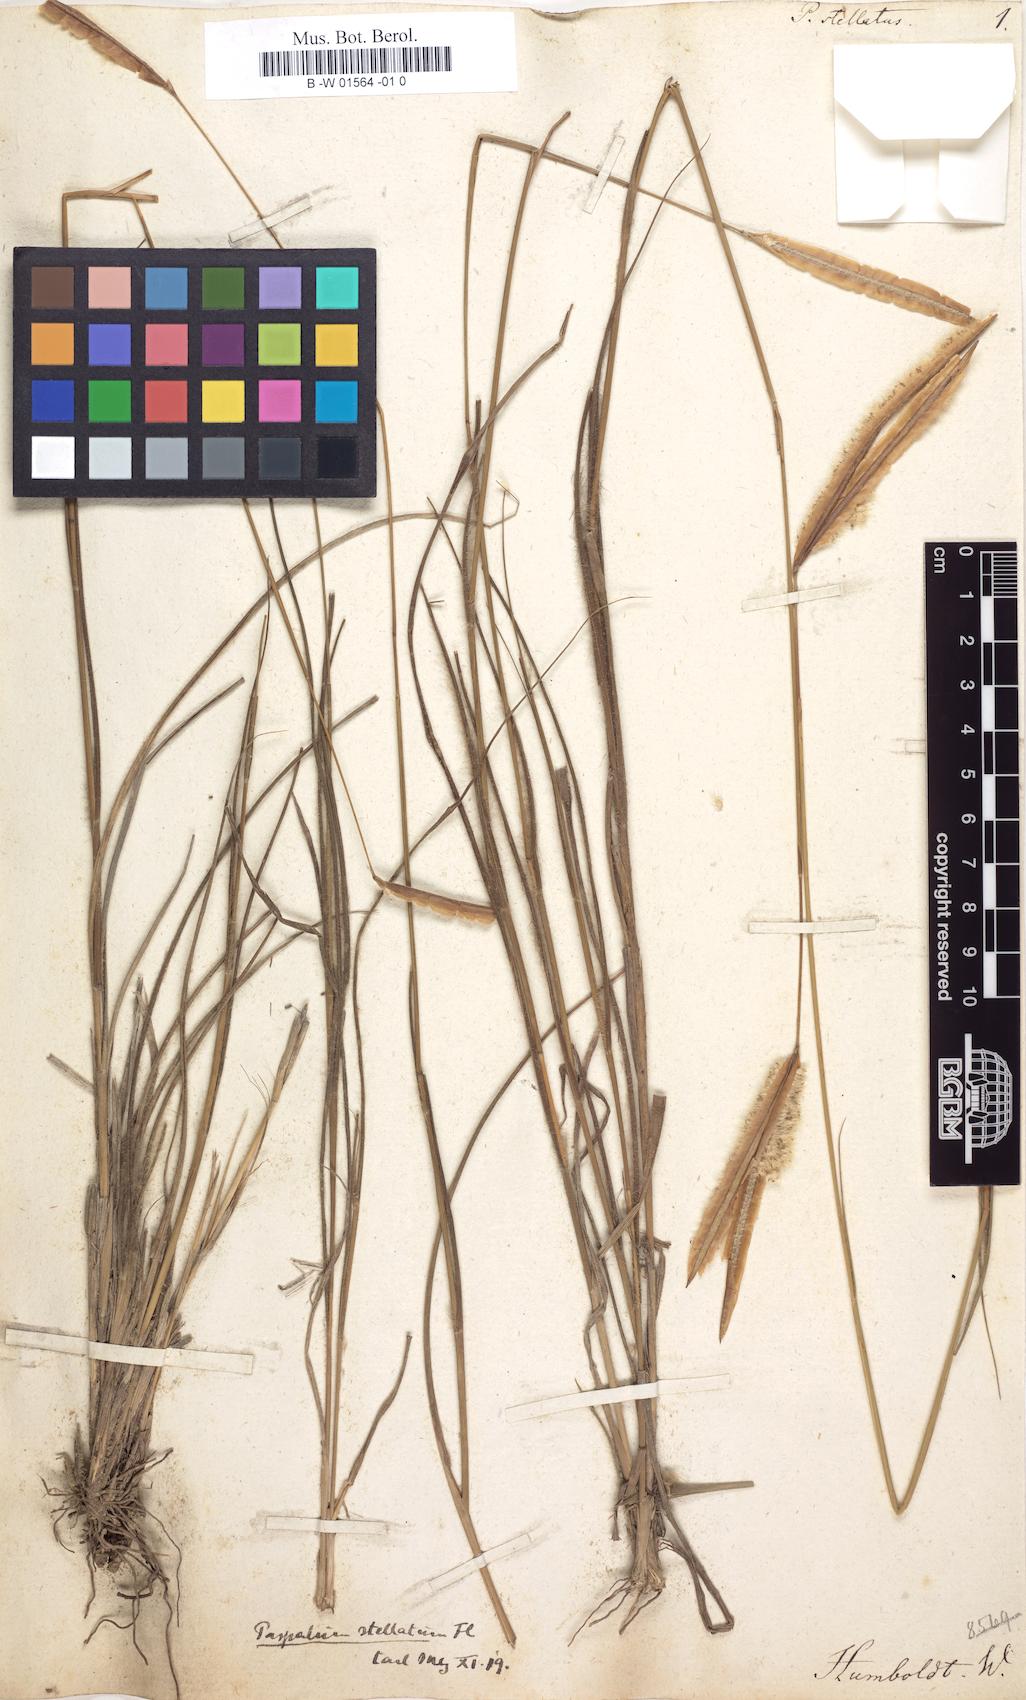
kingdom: Plantae
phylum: Tracheophyta
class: Liliopsida
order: Poales
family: Poaceae
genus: Paspalum
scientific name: Paspalum stellatum
